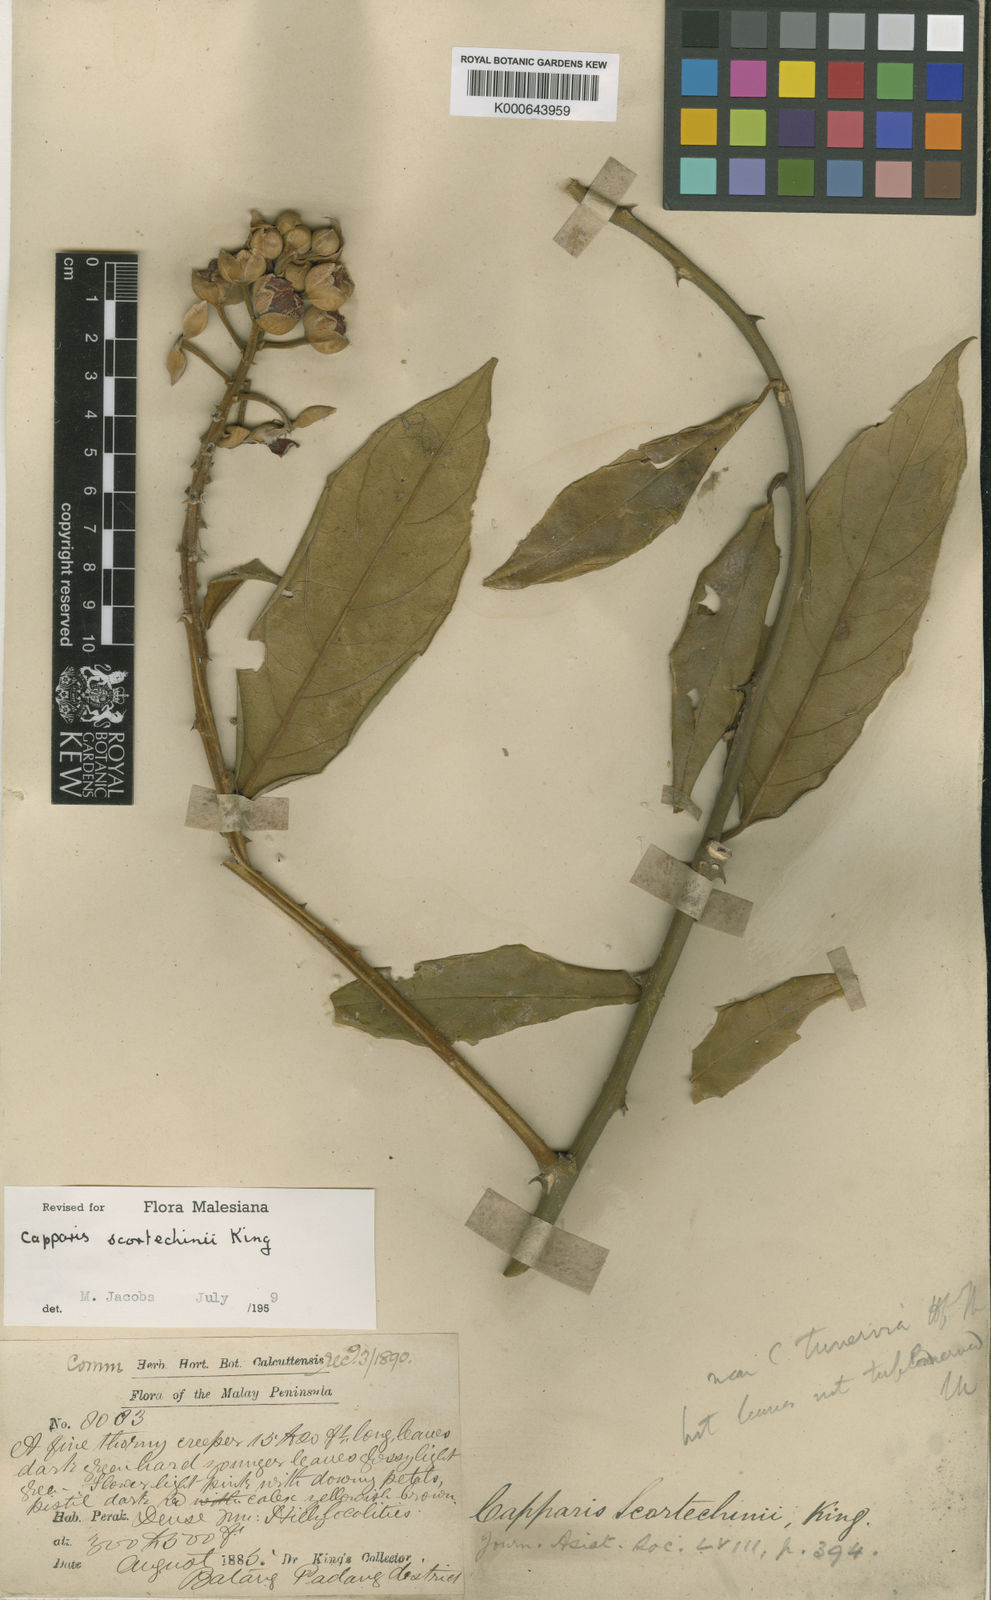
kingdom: Plantae
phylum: Tracheophyta
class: Magnoliopsida
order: Brassicales
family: Capparaceae
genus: Capparis
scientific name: Capparis scortechinii
